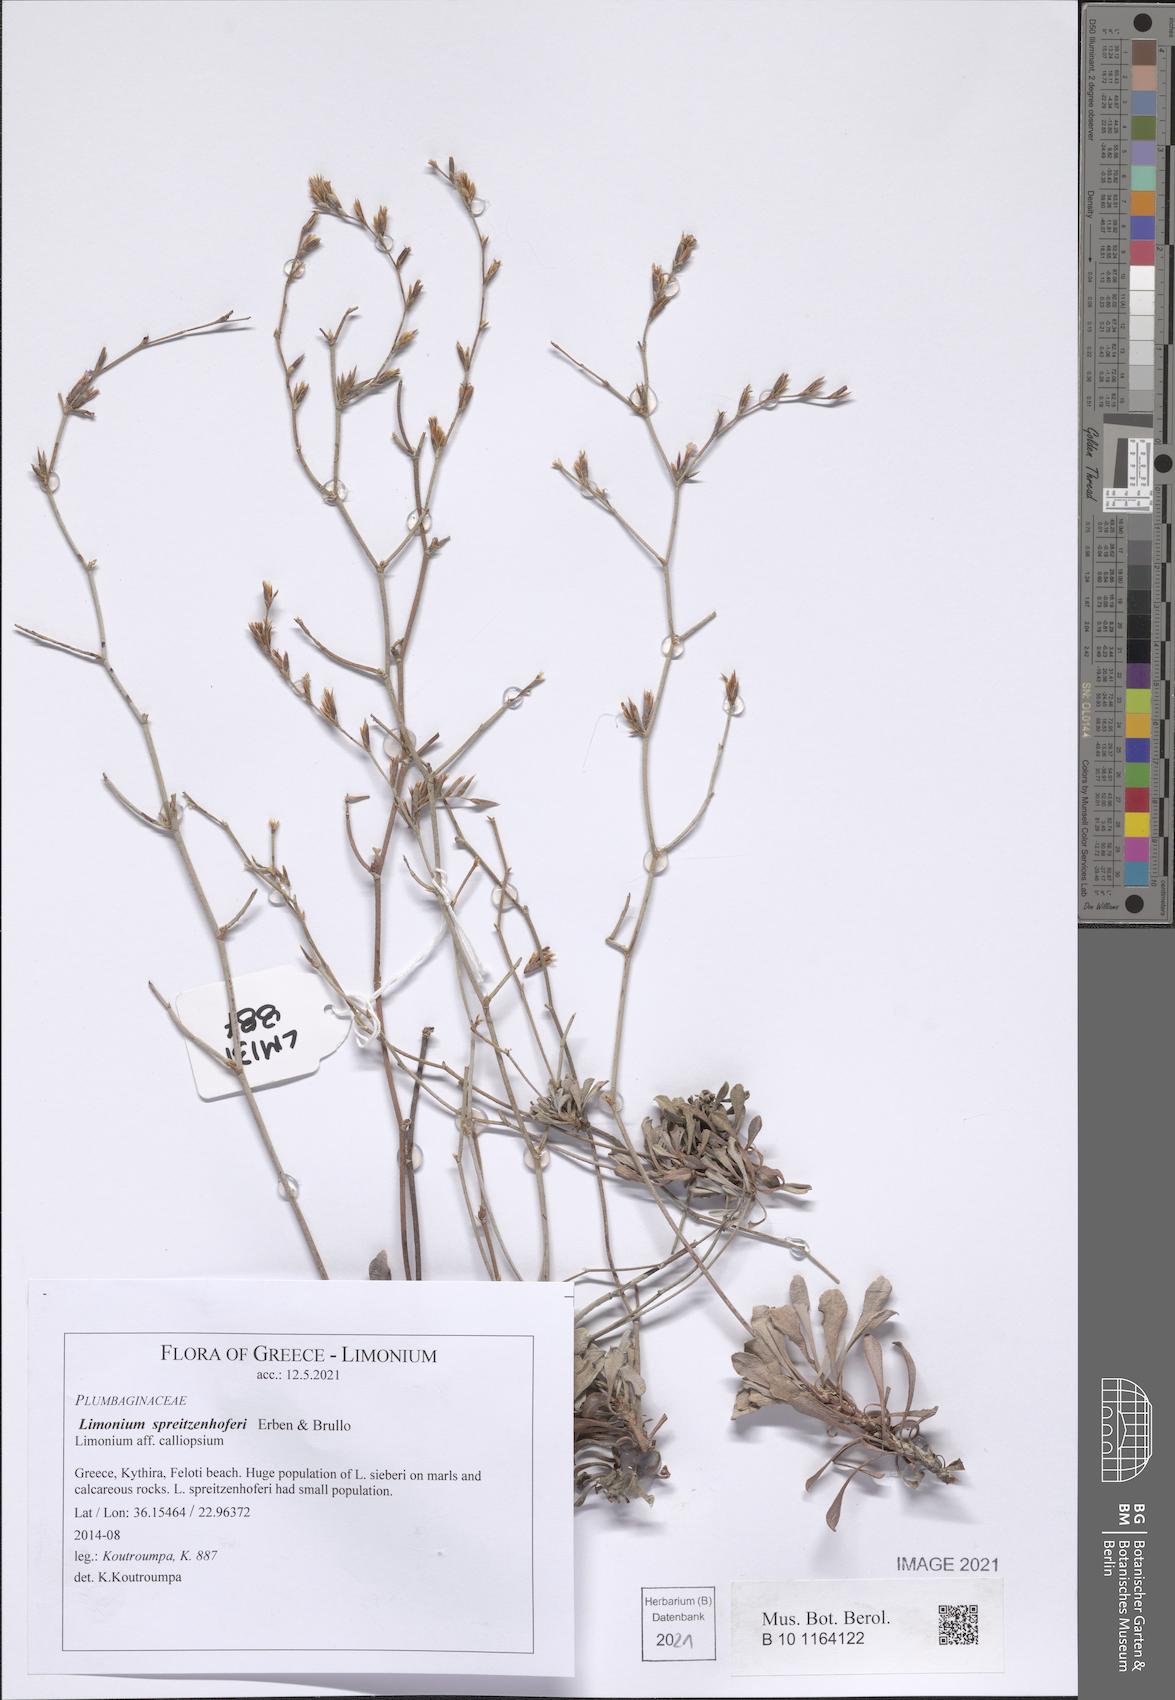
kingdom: Plantae
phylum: Tracheophyta
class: Magnoliopsida
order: Caryophyllales
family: Plumbaginaceae
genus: Limonium
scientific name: Limonium spreitzenhoferi
